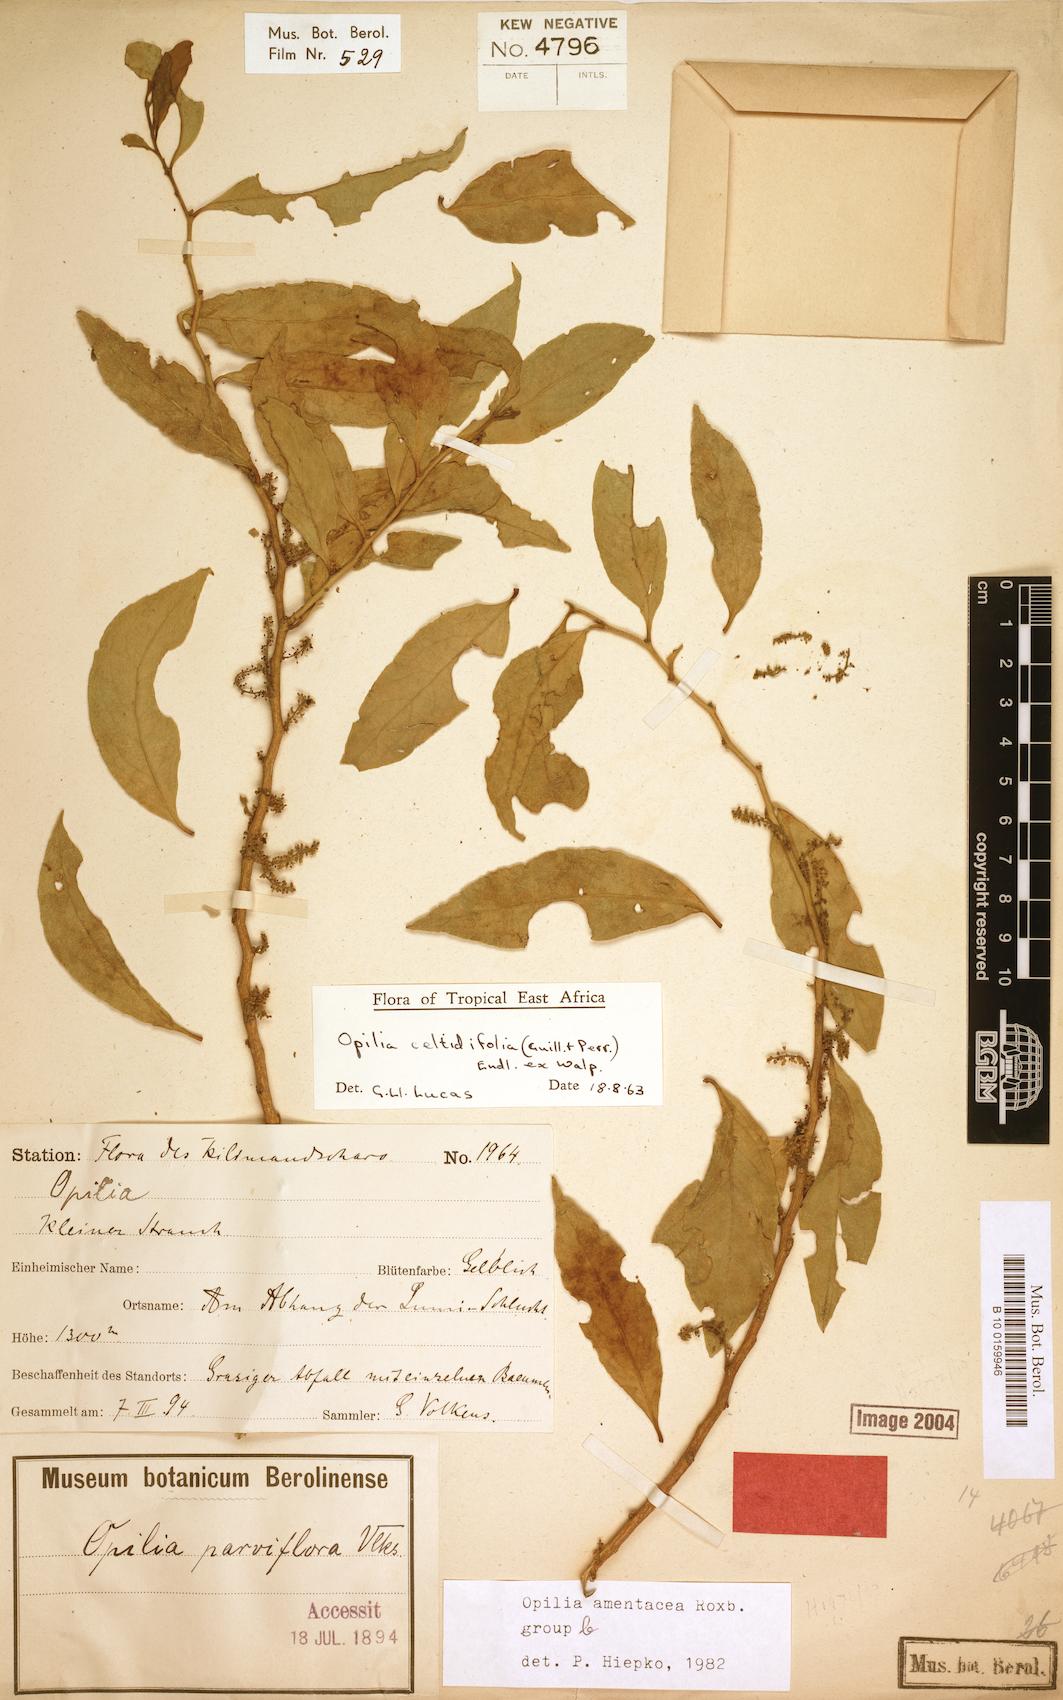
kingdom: Plantae
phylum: Tracheophyta
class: Magnoliopsida
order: Santalales
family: Opiliaceae
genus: Opilia
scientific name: Opilia amentacea
